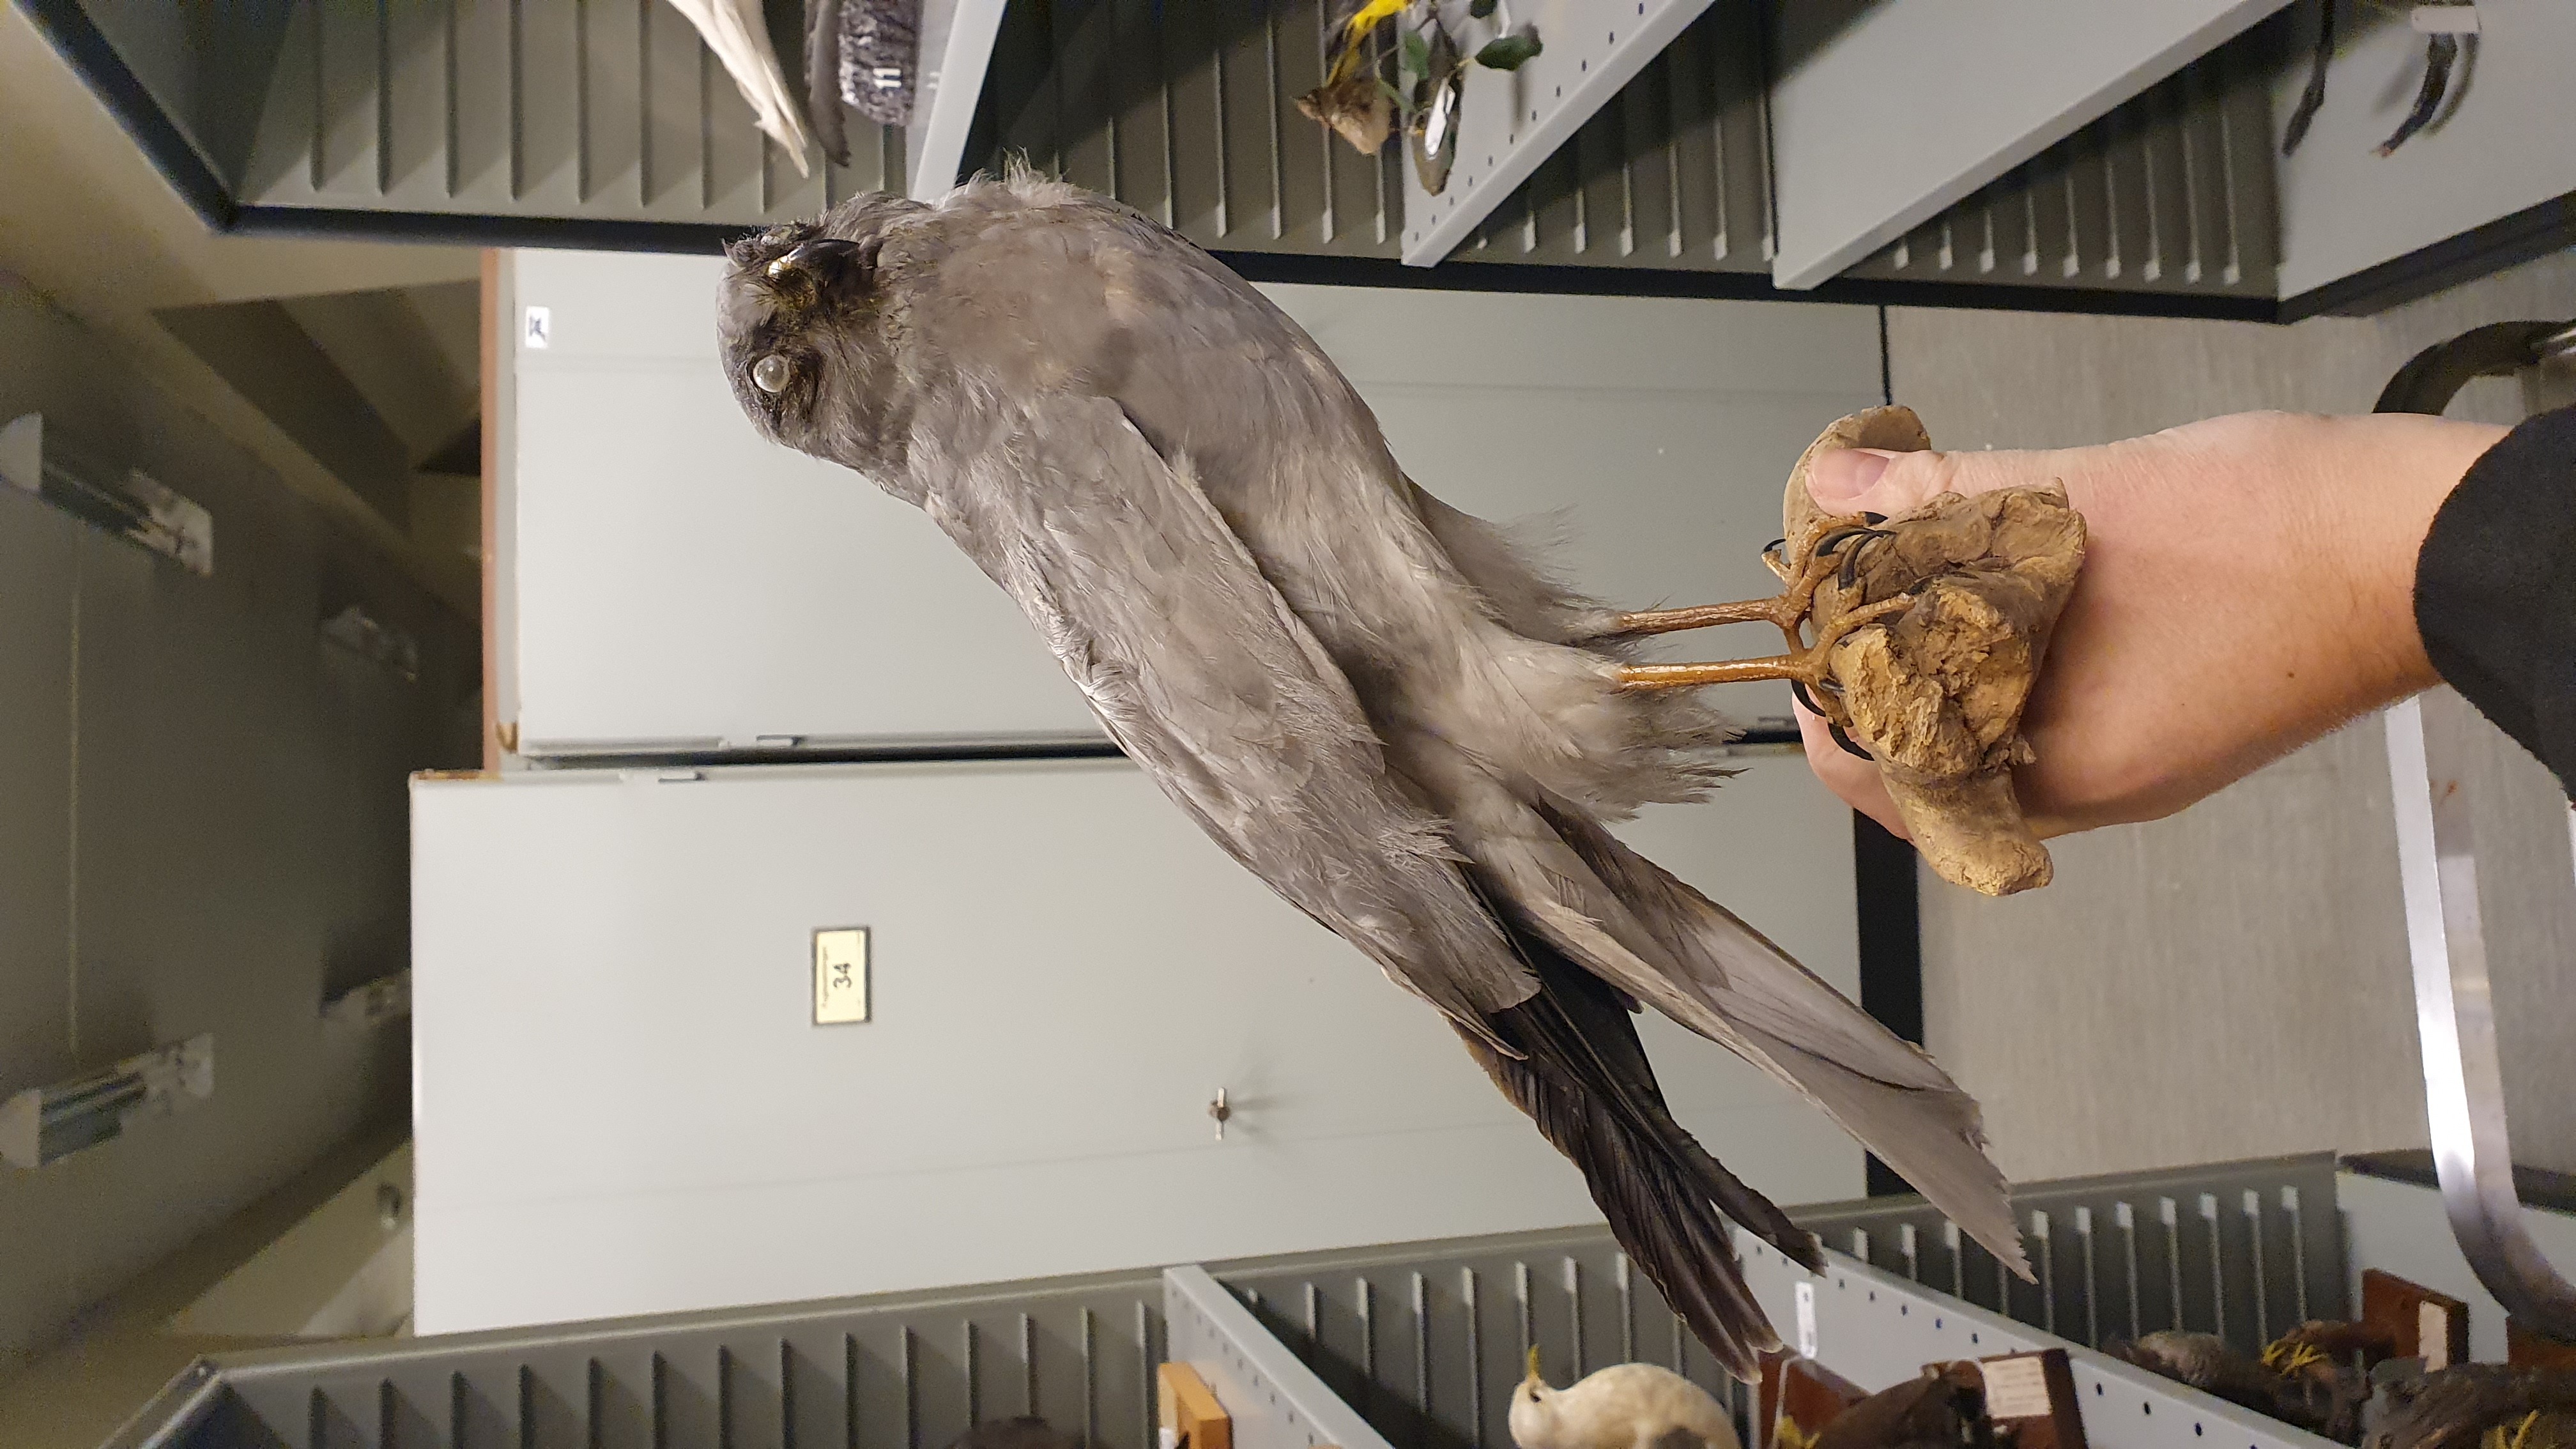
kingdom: Animalia
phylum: Chordata
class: Aves
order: Accipitriformes
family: Accipitridae
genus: Circus
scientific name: Circus cyaneus
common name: Hen harrier
